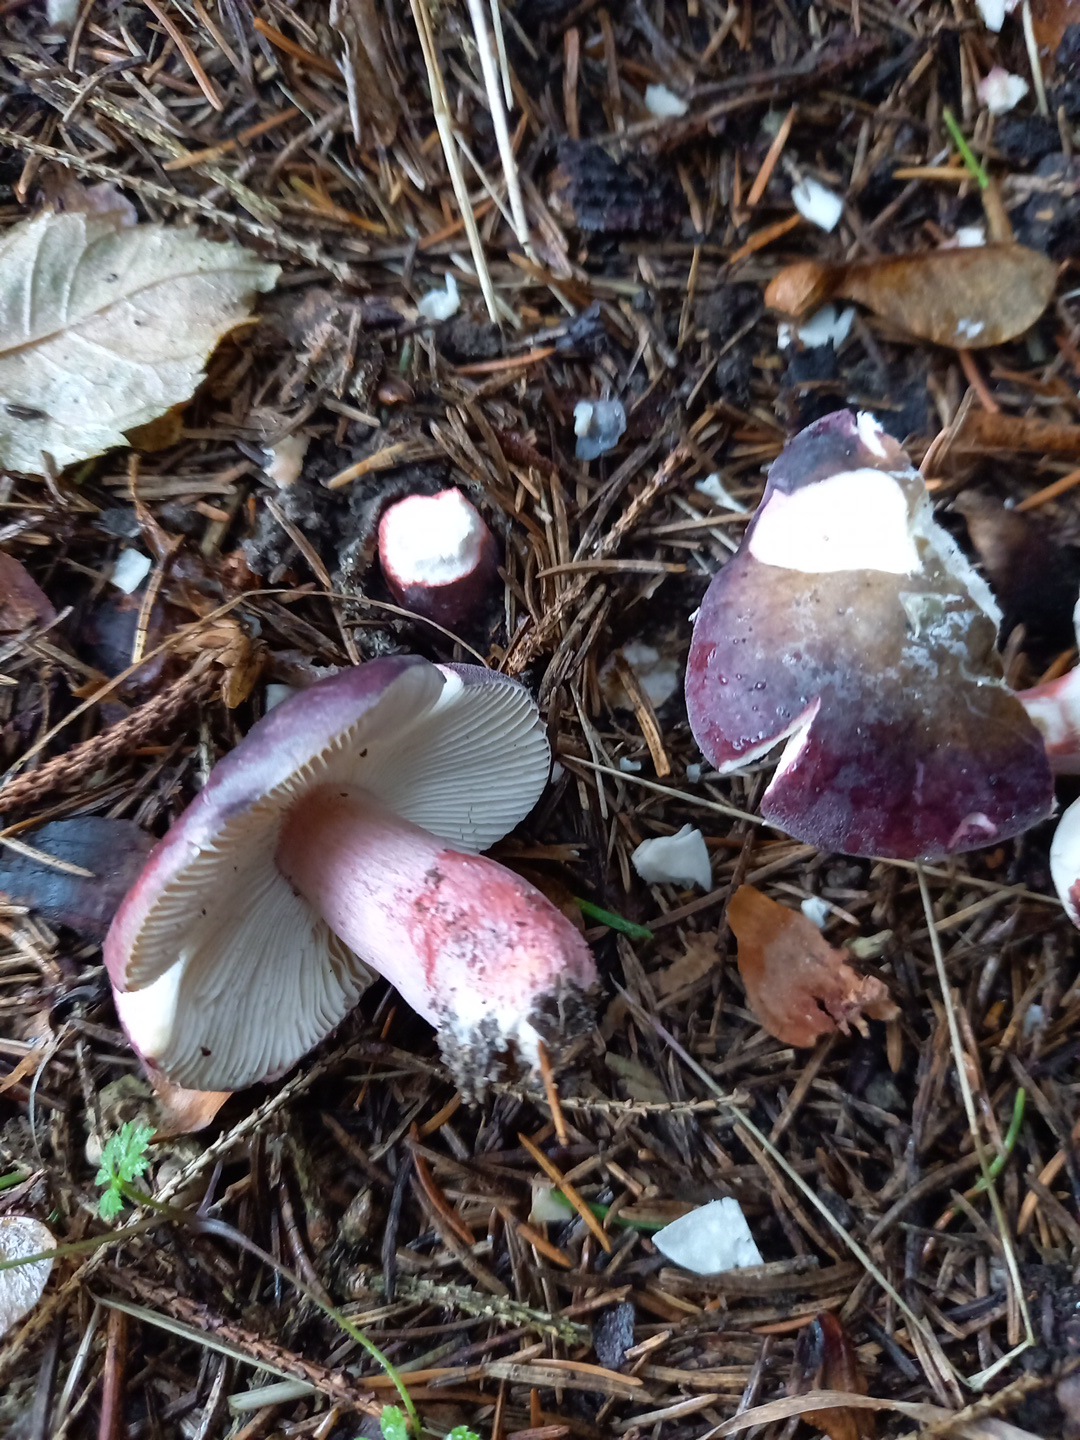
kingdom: Fungi
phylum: Basidiomycota
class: Agaricomycetes
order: Russulales
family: Russulaceae
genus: Russula
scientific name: Russula queletii
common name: Quélets skørhat
